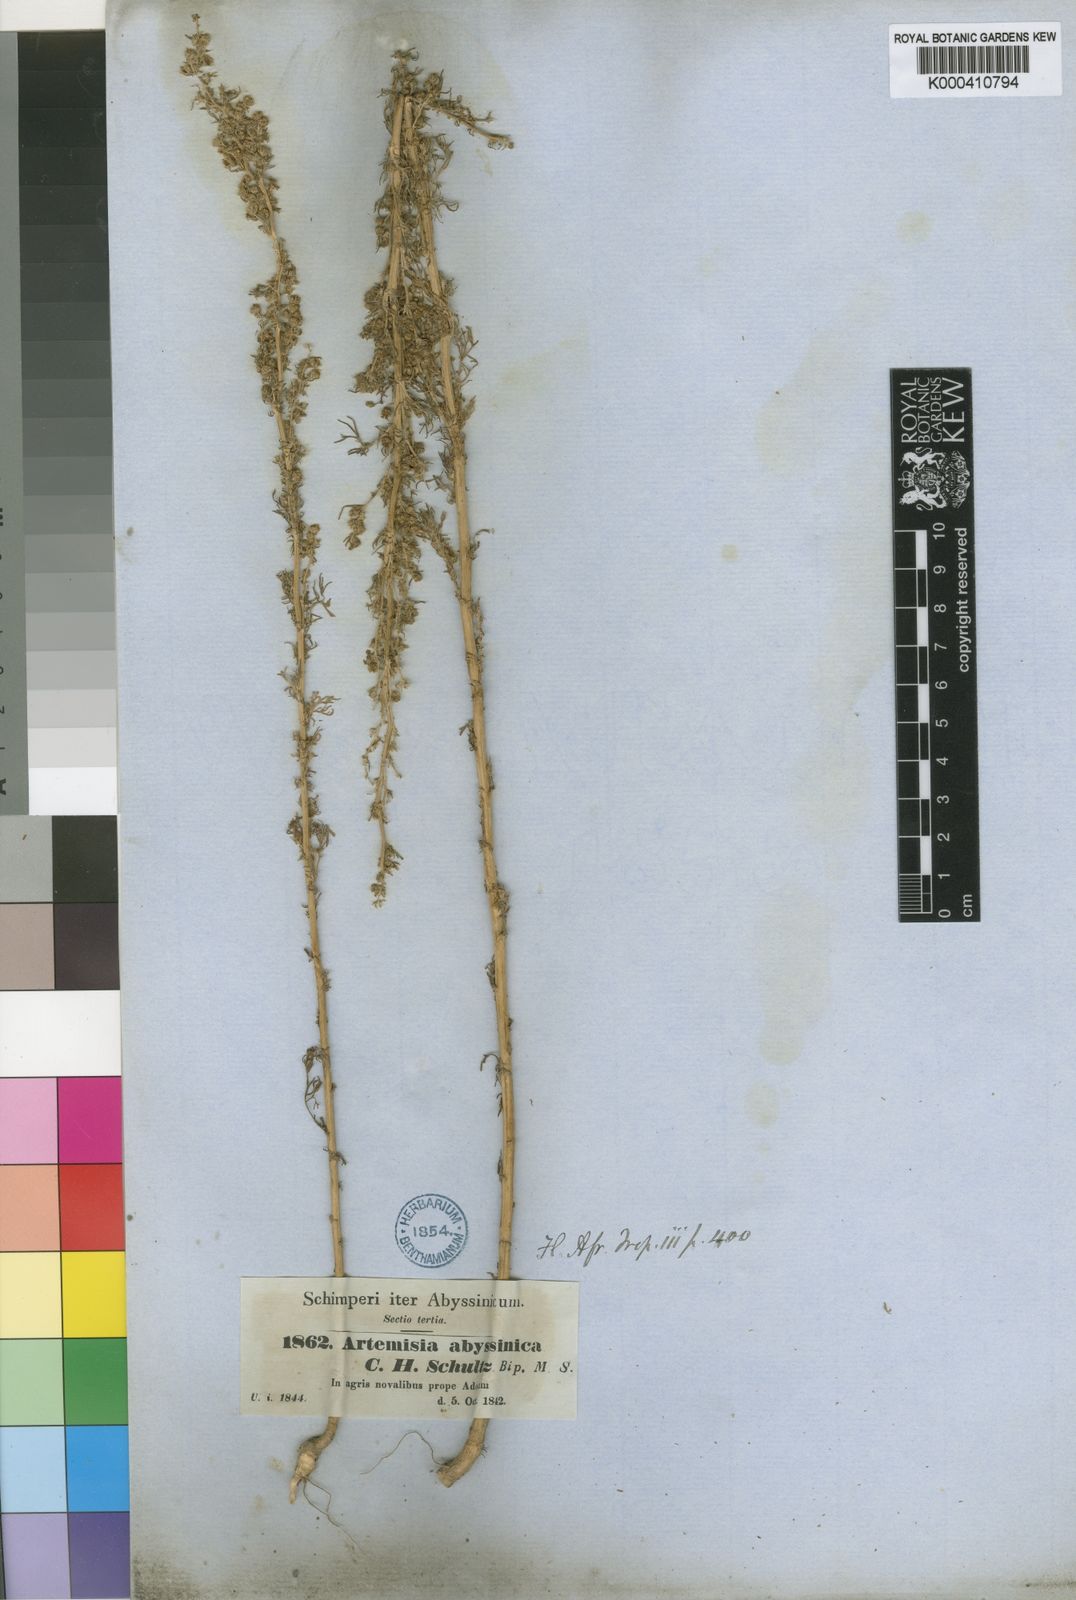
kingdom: Plantae
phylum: Tracheophyta
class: Magnoliopsida
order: Asterales
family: Asteraceae
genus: Artemisia
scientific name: Artemisia abyssinica
